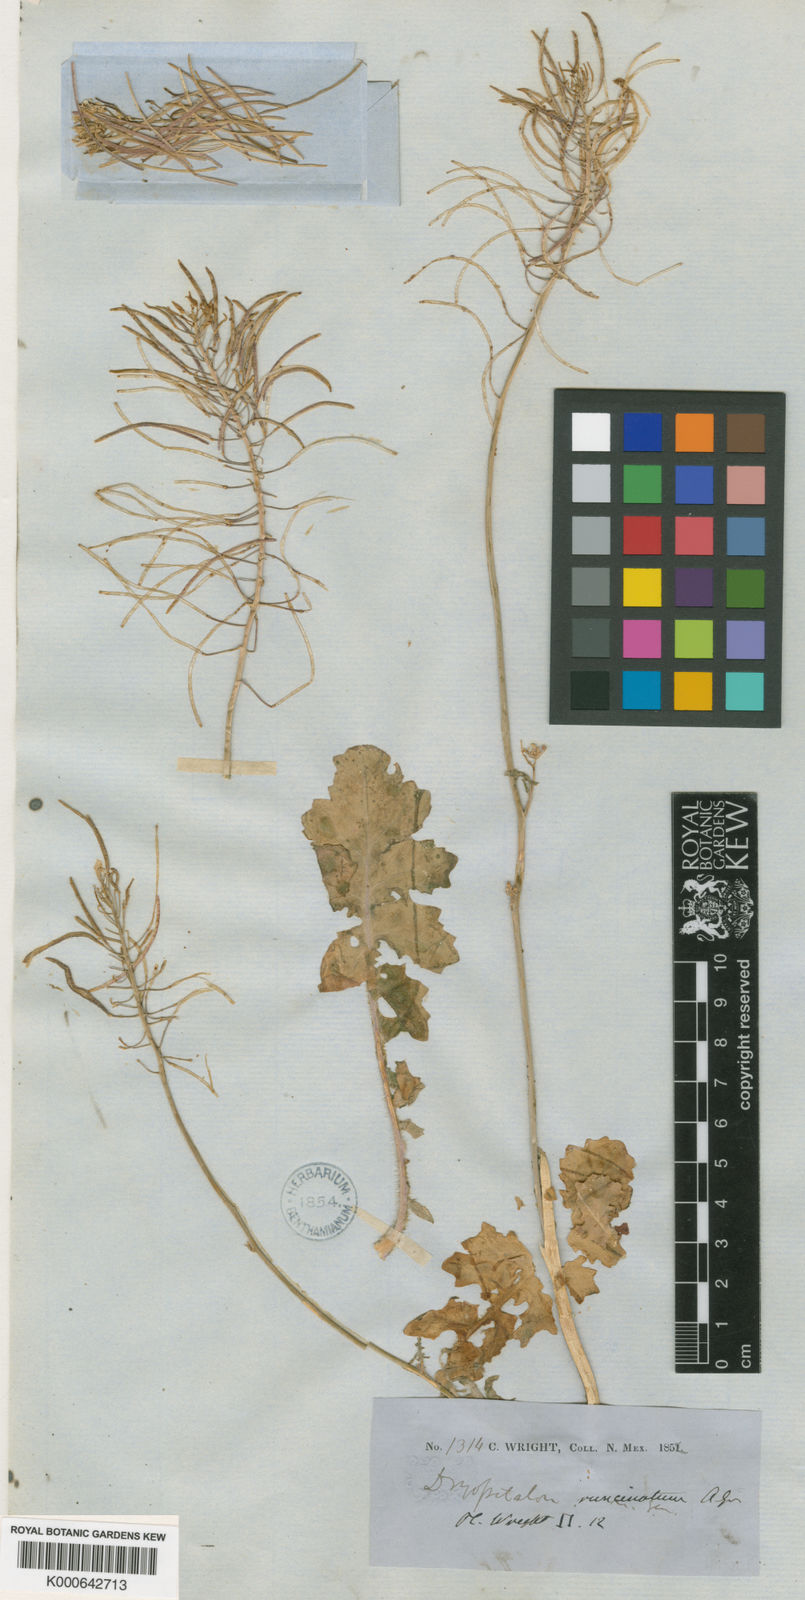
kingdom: Plantae
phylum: Tracheophyta
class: Magnoliopsida
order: Brassicales
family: Brassicaceae
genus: Dryopetalon
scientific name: Dryopetalon runcinatum
